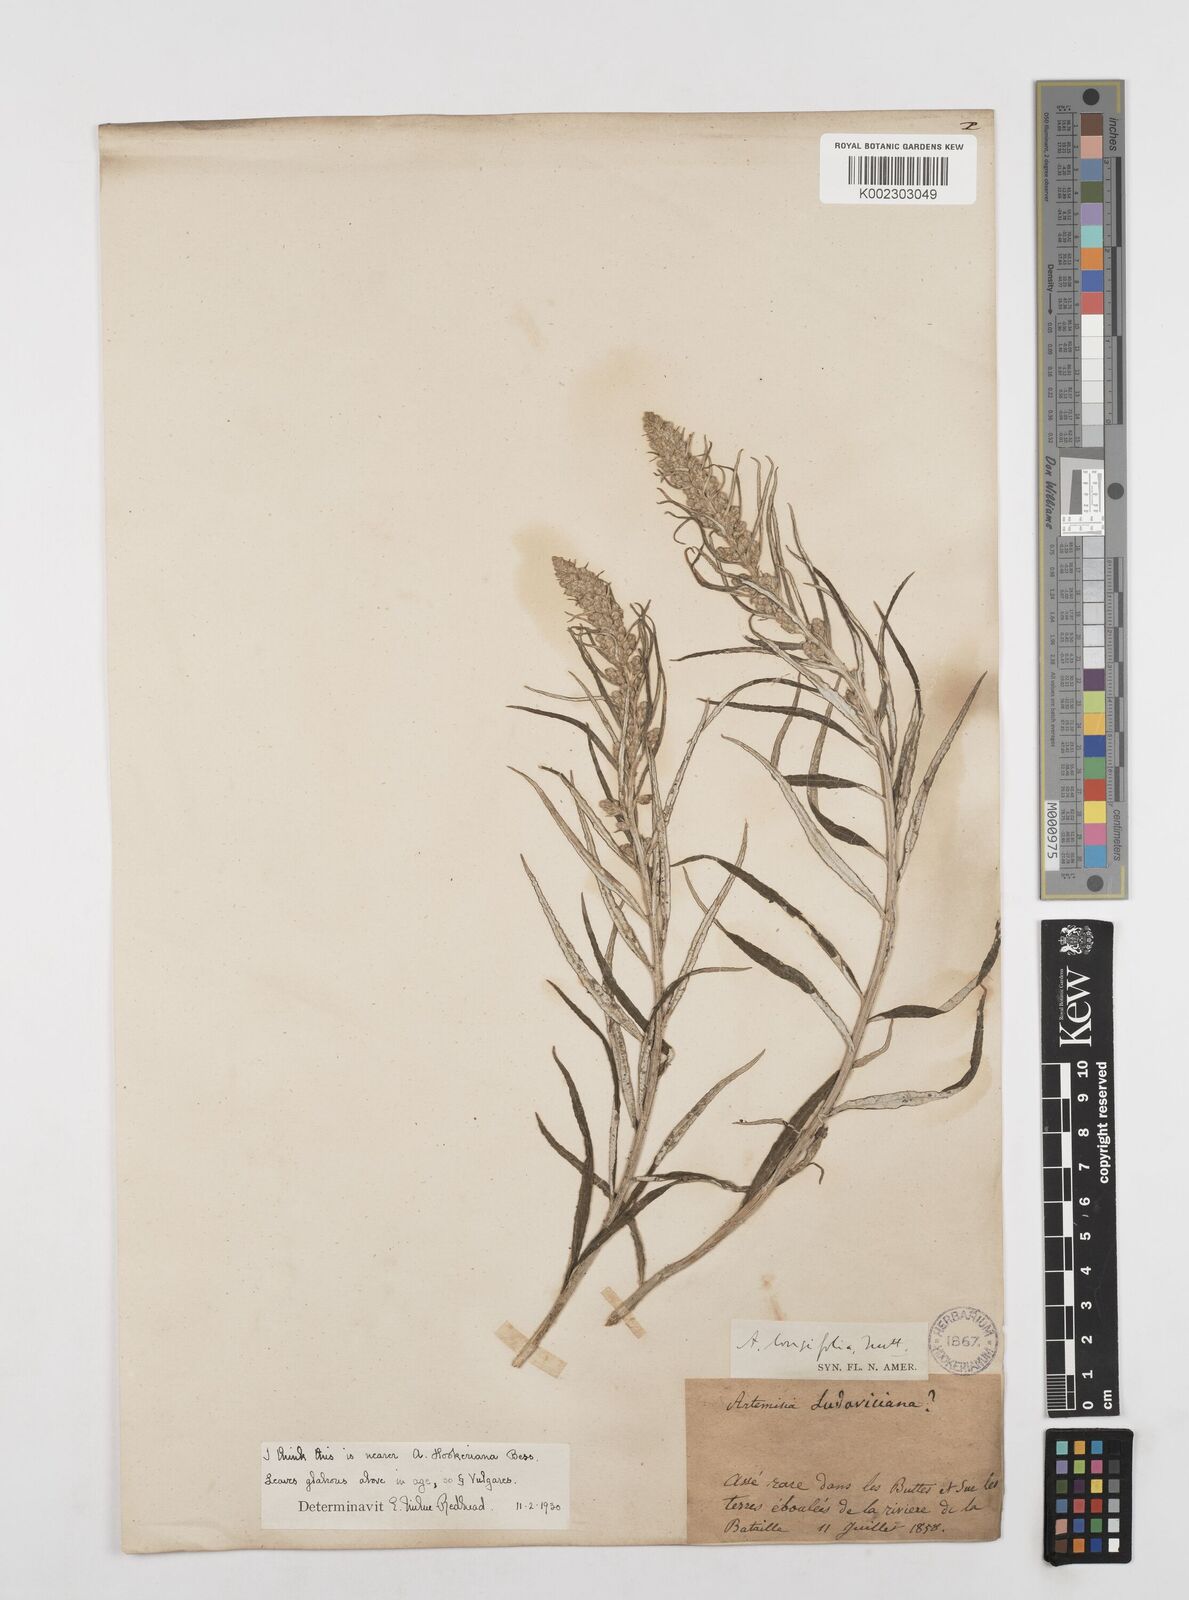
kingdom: Plantae
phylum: Tracheophyta
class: Magnoliopsida
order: Asterales
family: Asteraceae
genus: Artemisia
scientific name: Artemisia tilesii
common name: Aleutian mugwort
